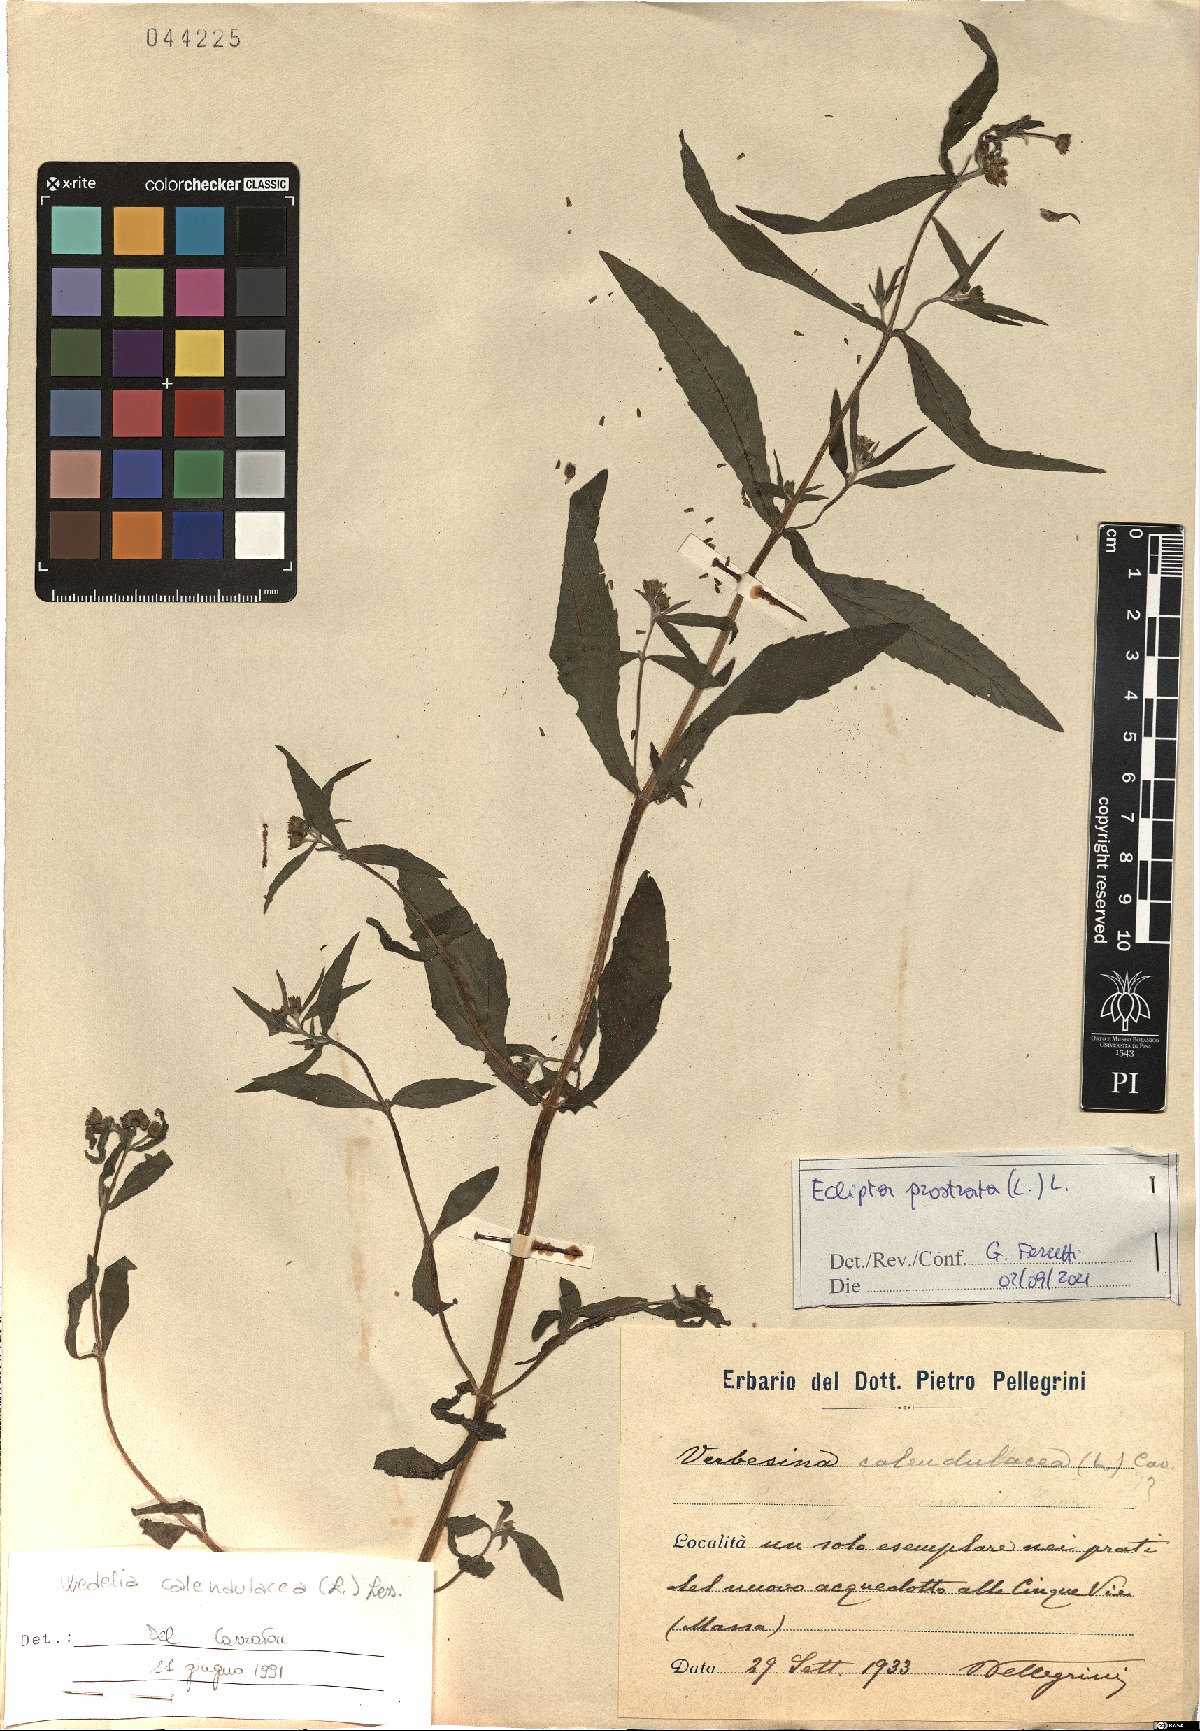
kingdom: Plantae
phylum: Tracheophyta
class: Magnoliopsida
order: Asterales
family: Asteraceae
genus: Eclipta
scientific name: Eclipta prostrata
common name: False daisy
